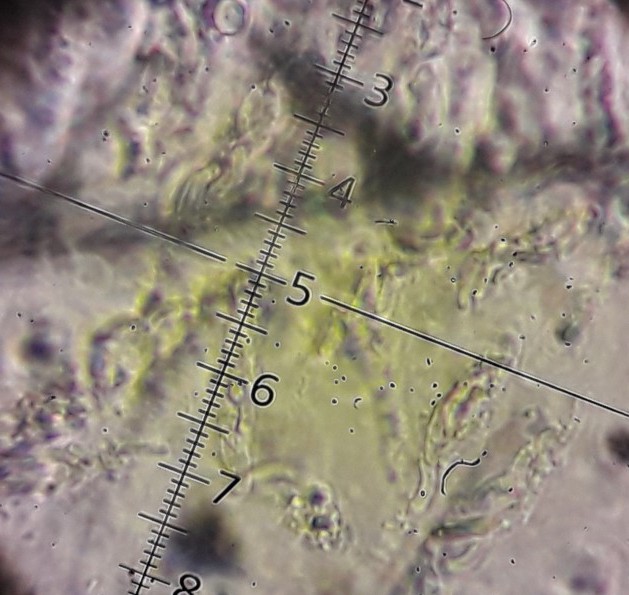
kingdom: Fungi
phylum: Ascomycota
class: Sordariomycetes
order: Xylariales
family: Diatrypaceae
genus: Eutypella
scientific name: Eutypella prunastri
